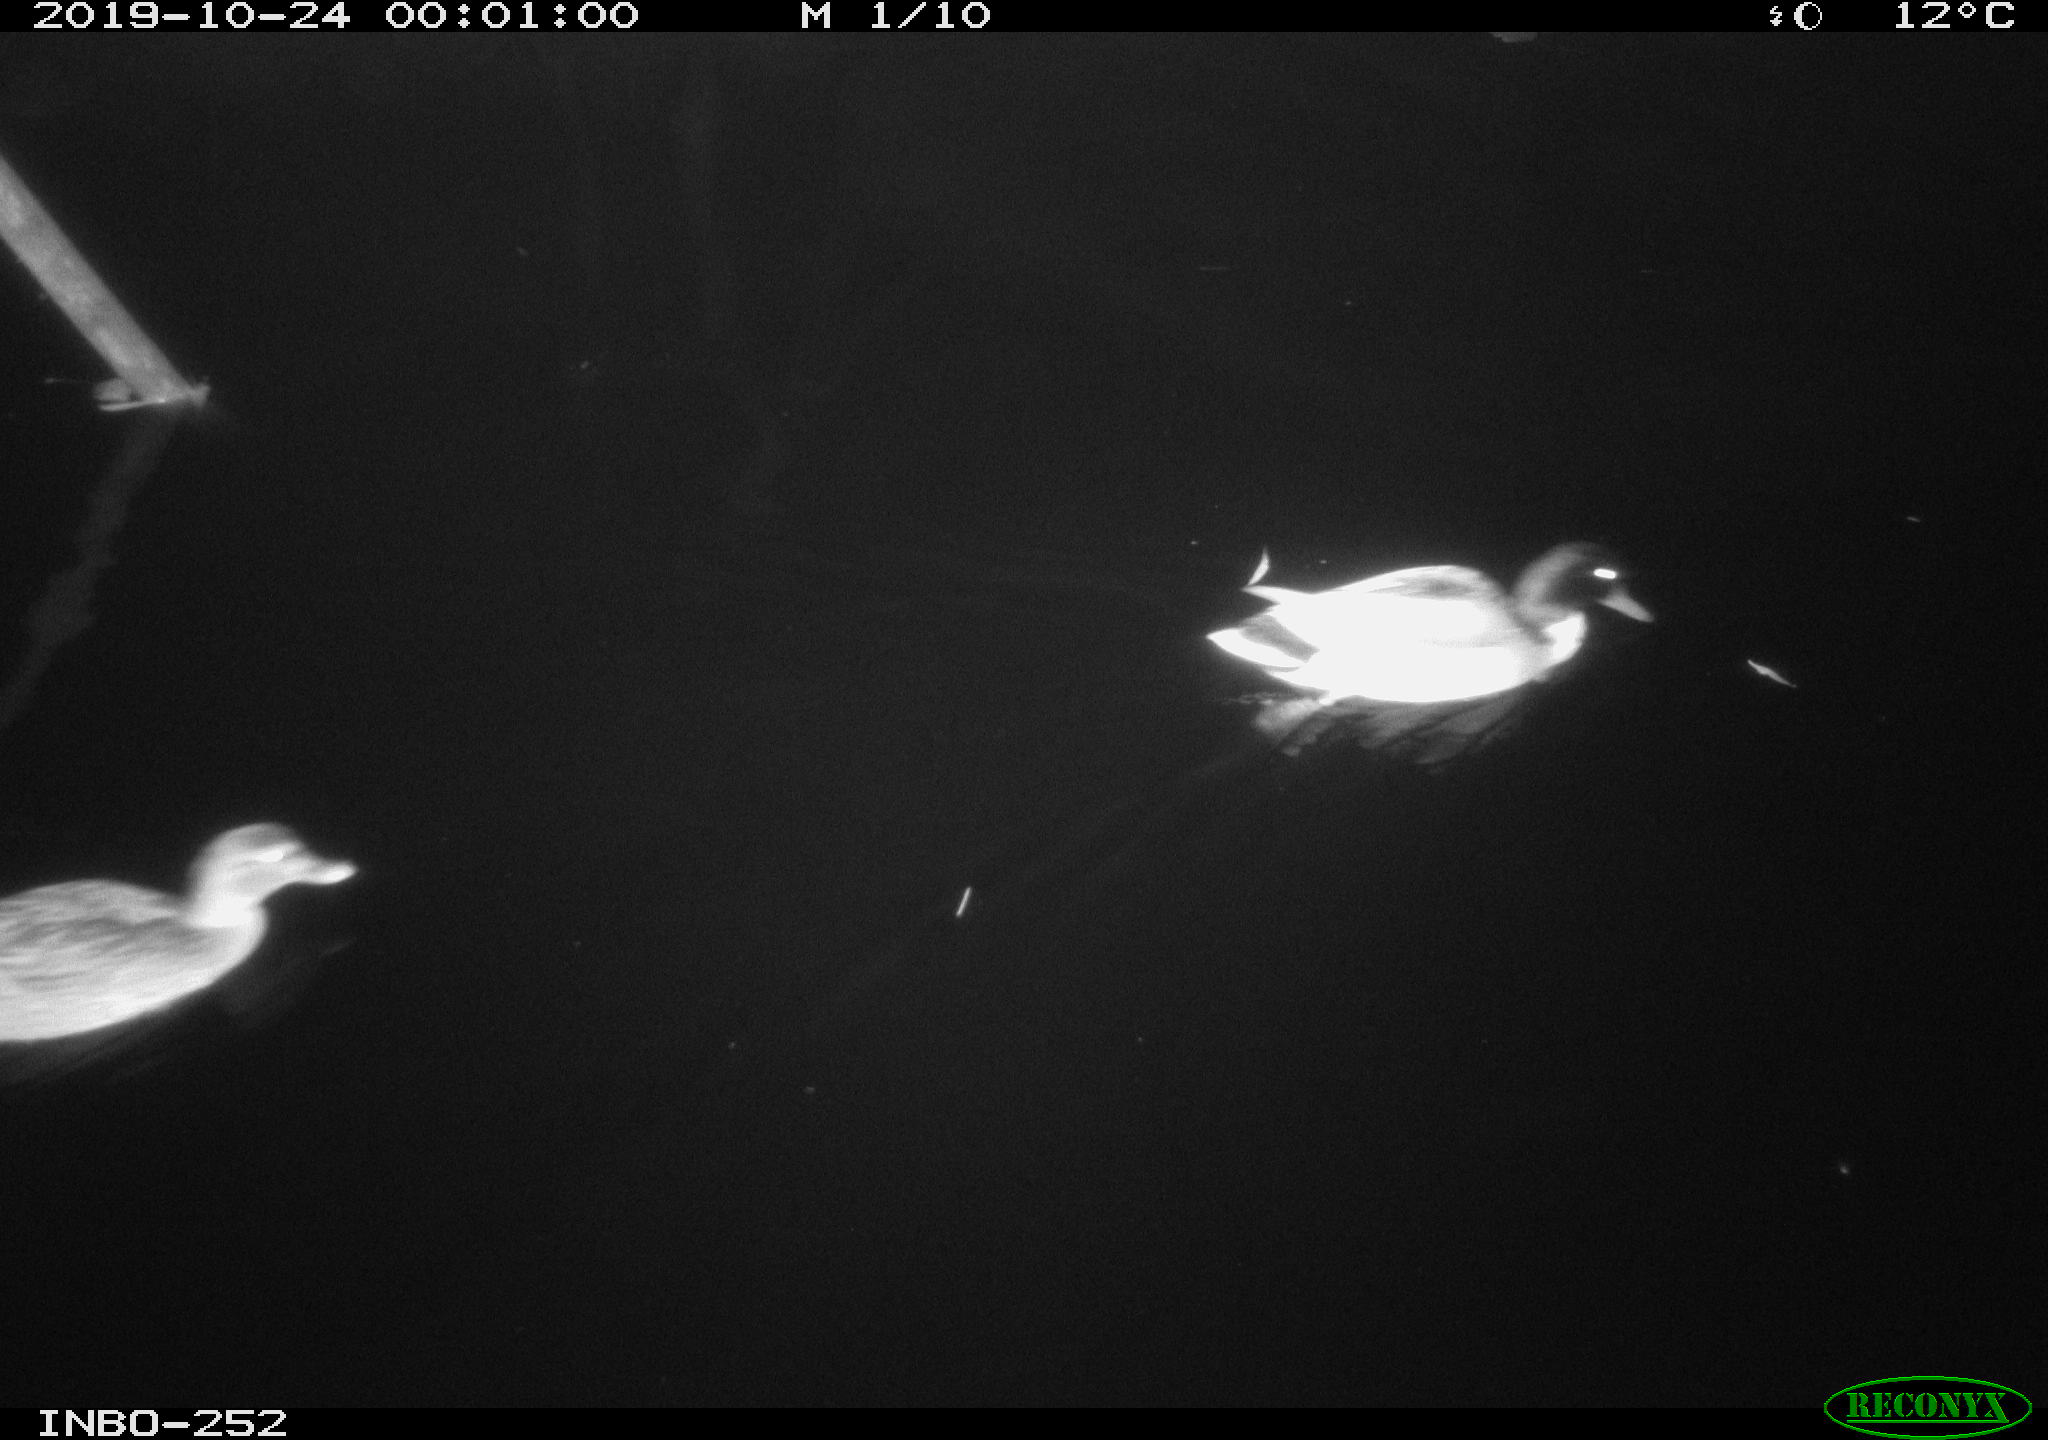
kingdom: Animalia
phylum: Chordata
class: Aves
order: Anseriformes
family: Anatidae
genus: Anas
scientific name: Anas platyrhynchos
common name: Mallard
